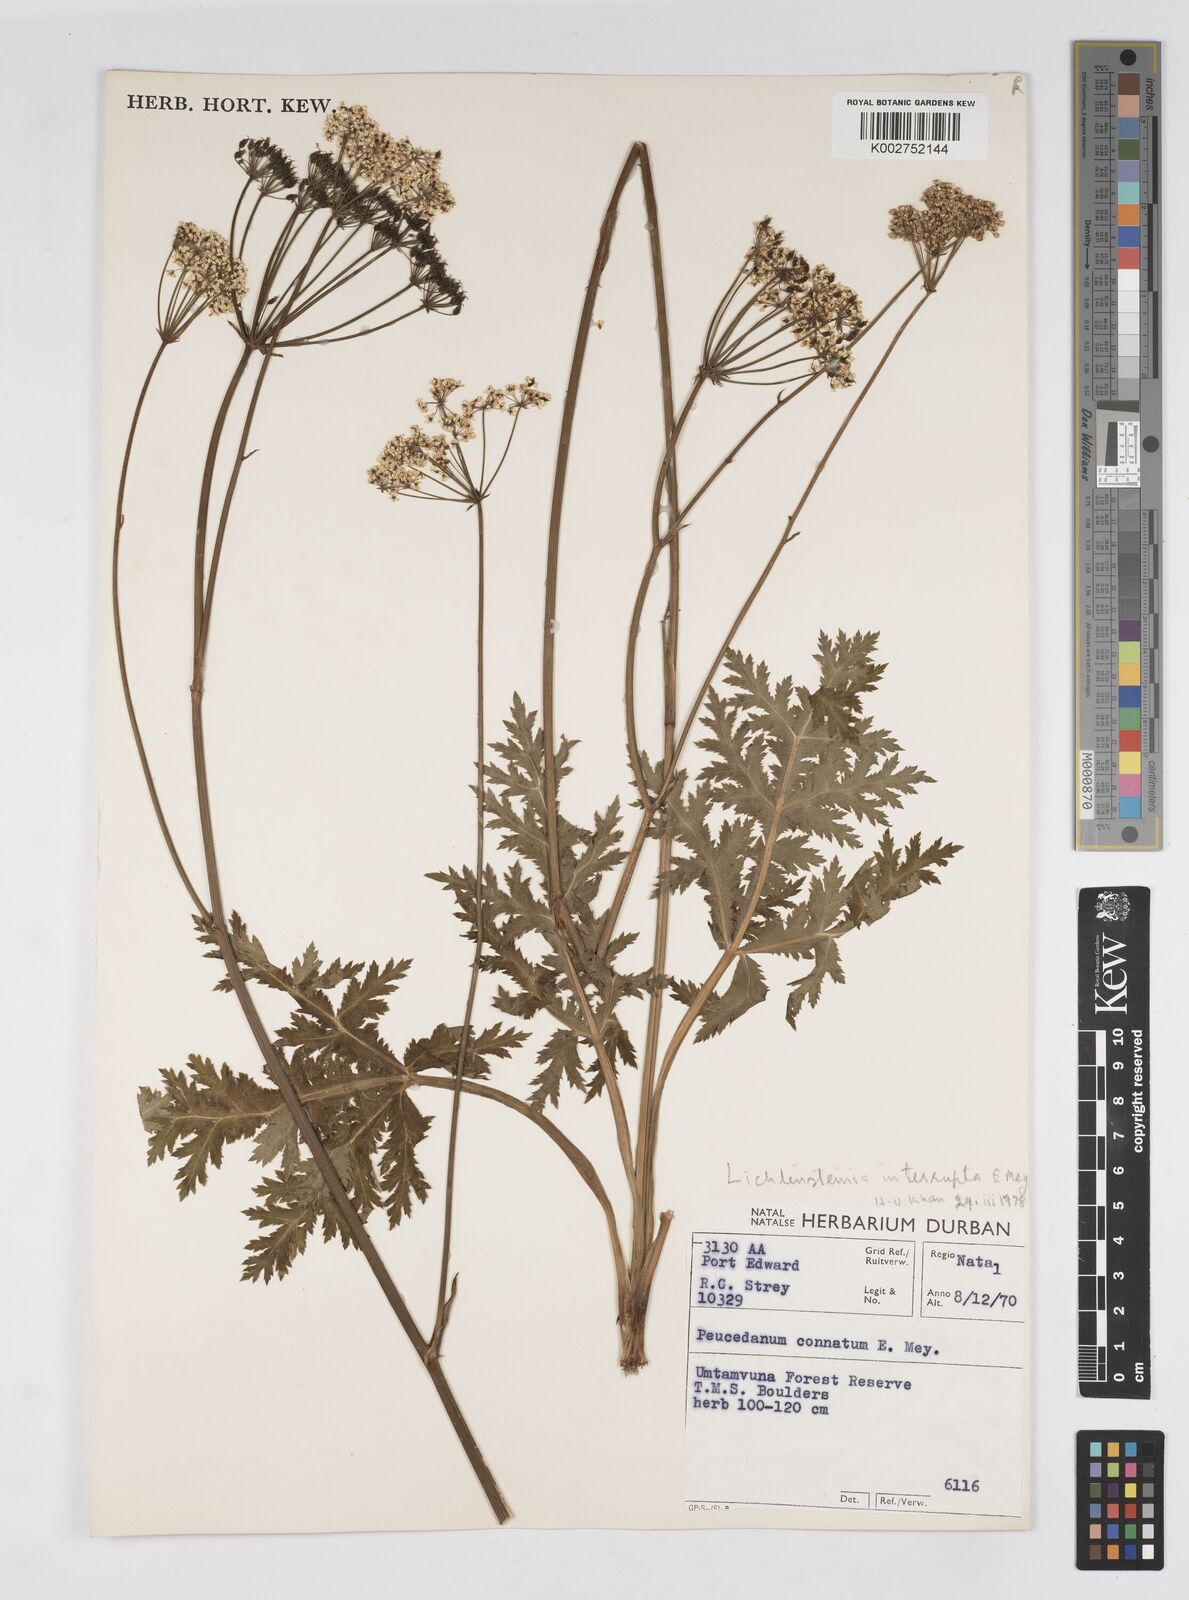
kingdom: Plantae
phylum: Tracheophyta
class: Magnoliopsida
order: Apiales
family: Apiaceae
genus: Lichtensteinia
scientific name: Lichtensteinia interrupta
